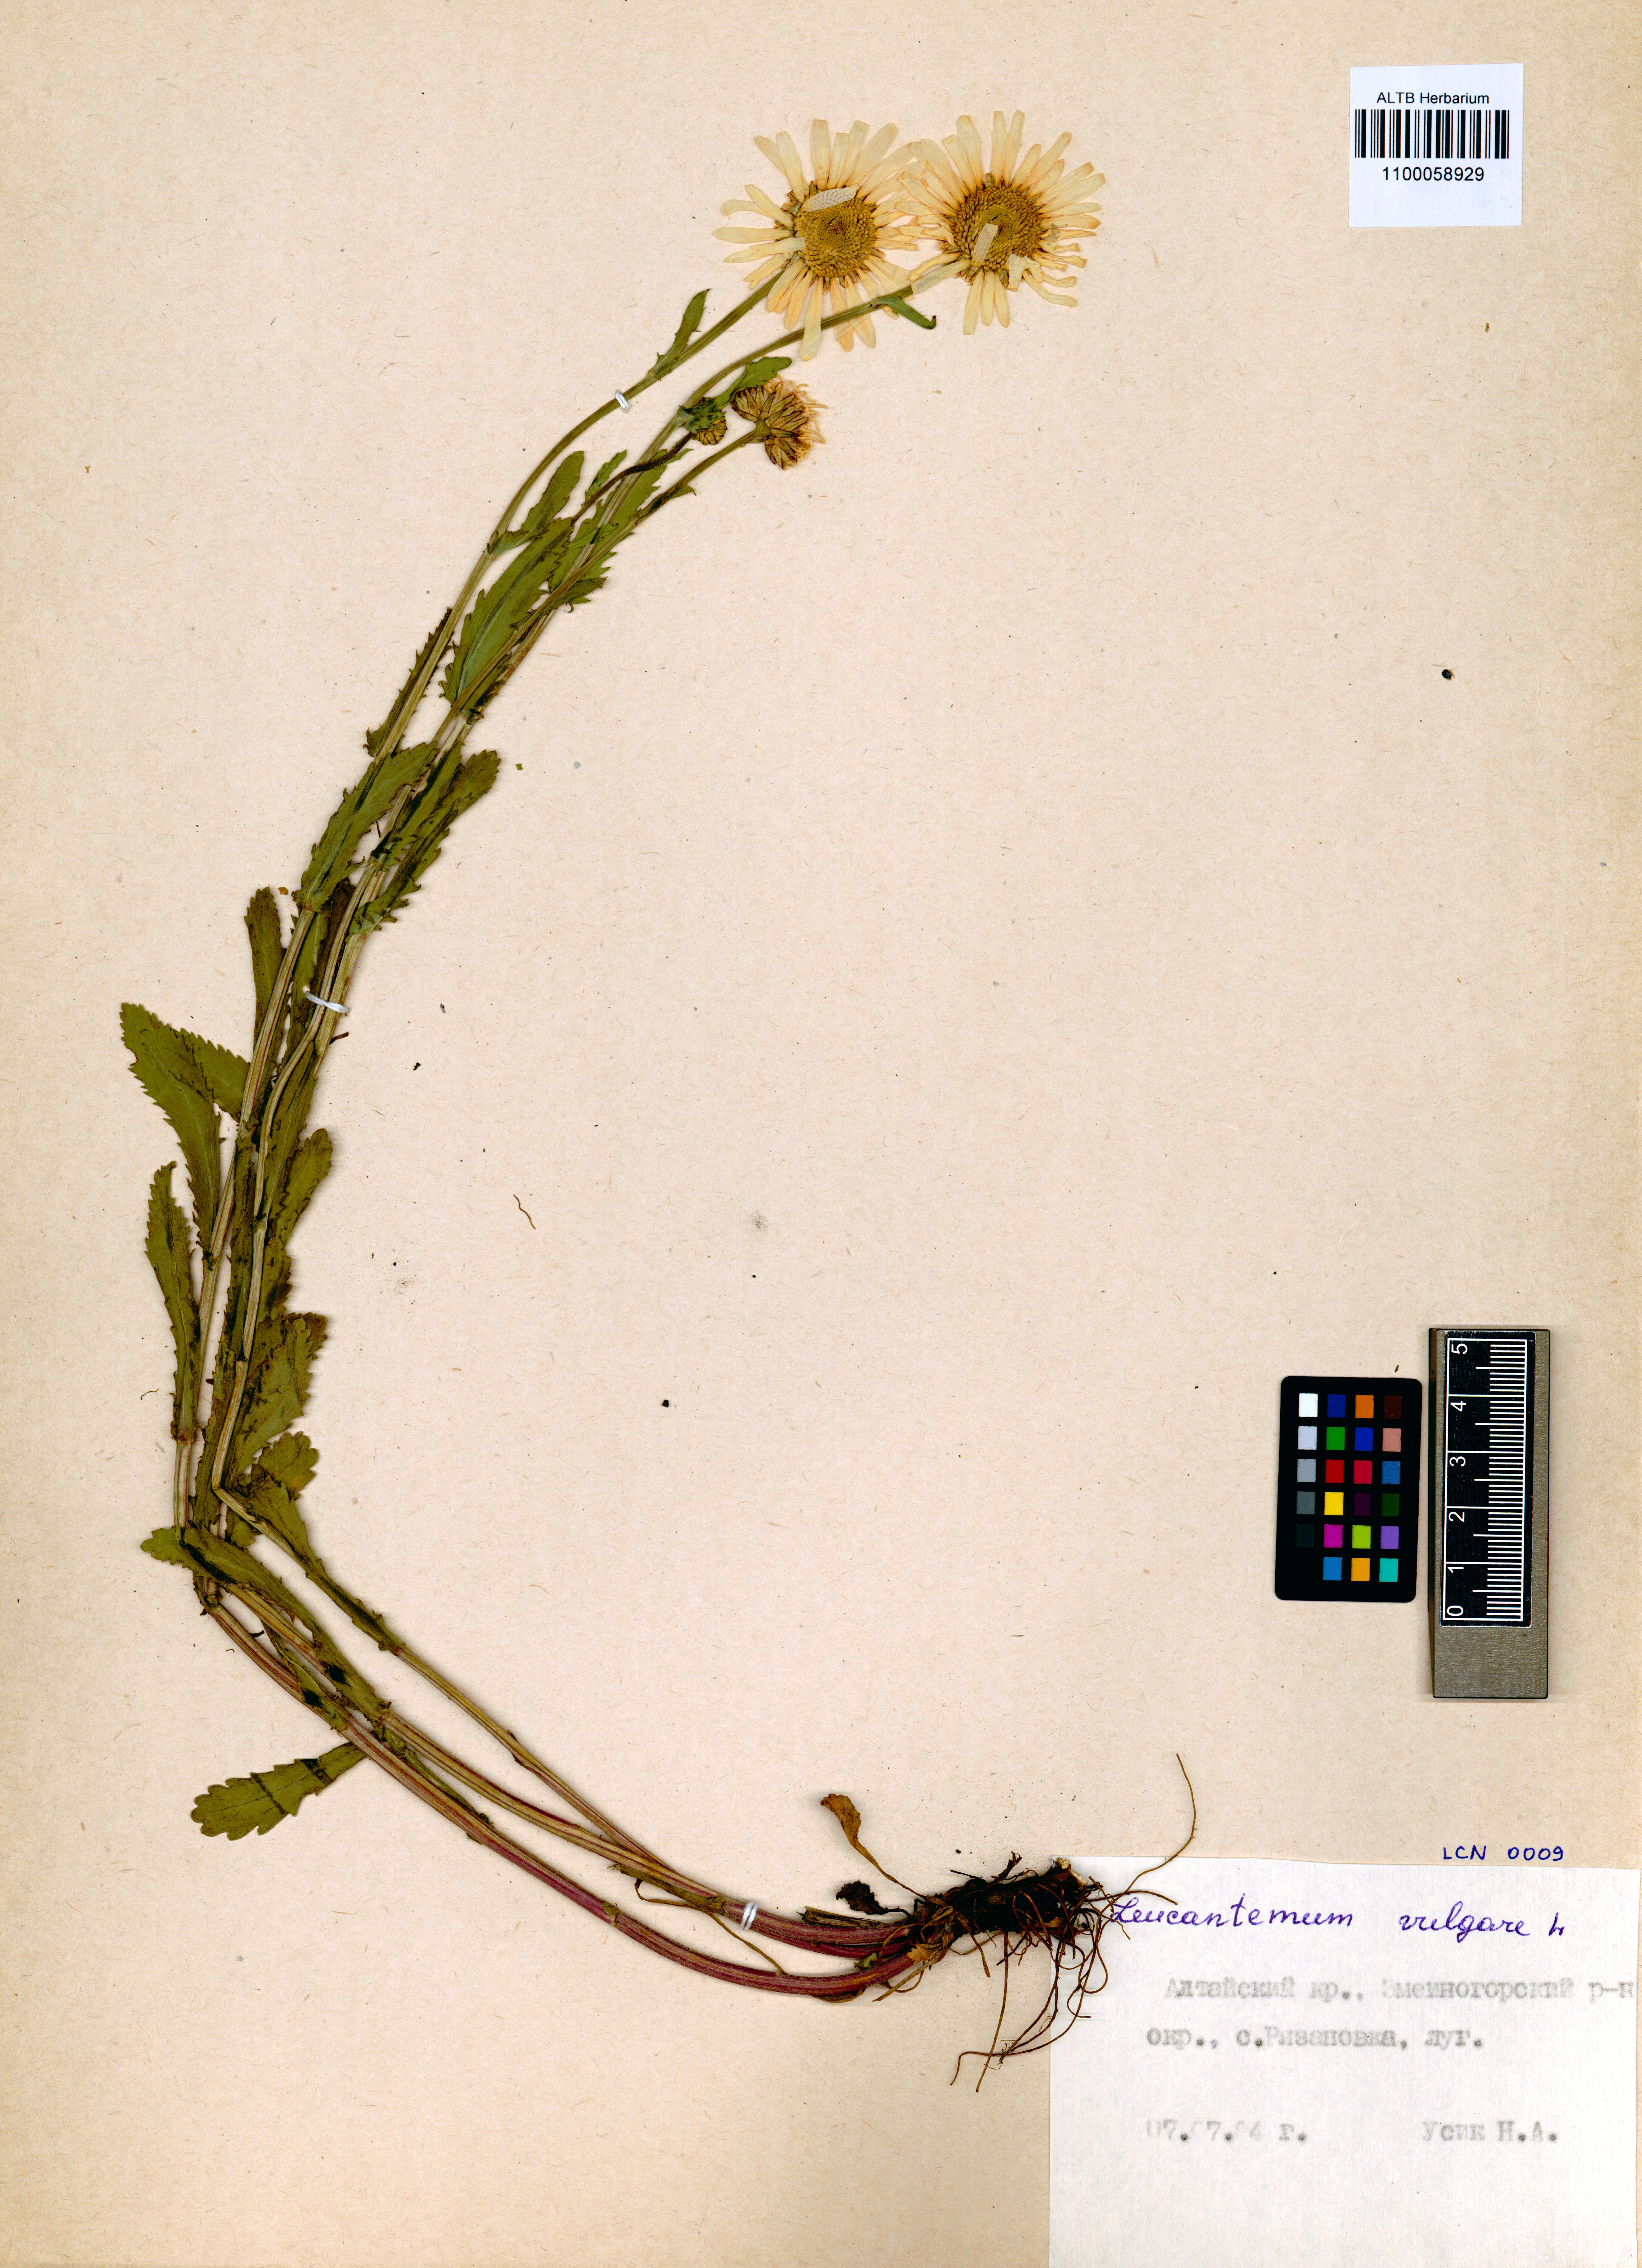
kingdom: Plantae
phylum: Tracheophyta
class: Magnoliopsida
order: Asterales
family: Asteraceae
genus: Leucanthemum
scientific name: Leucanthemum vulgare
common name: Oxeye daisy
